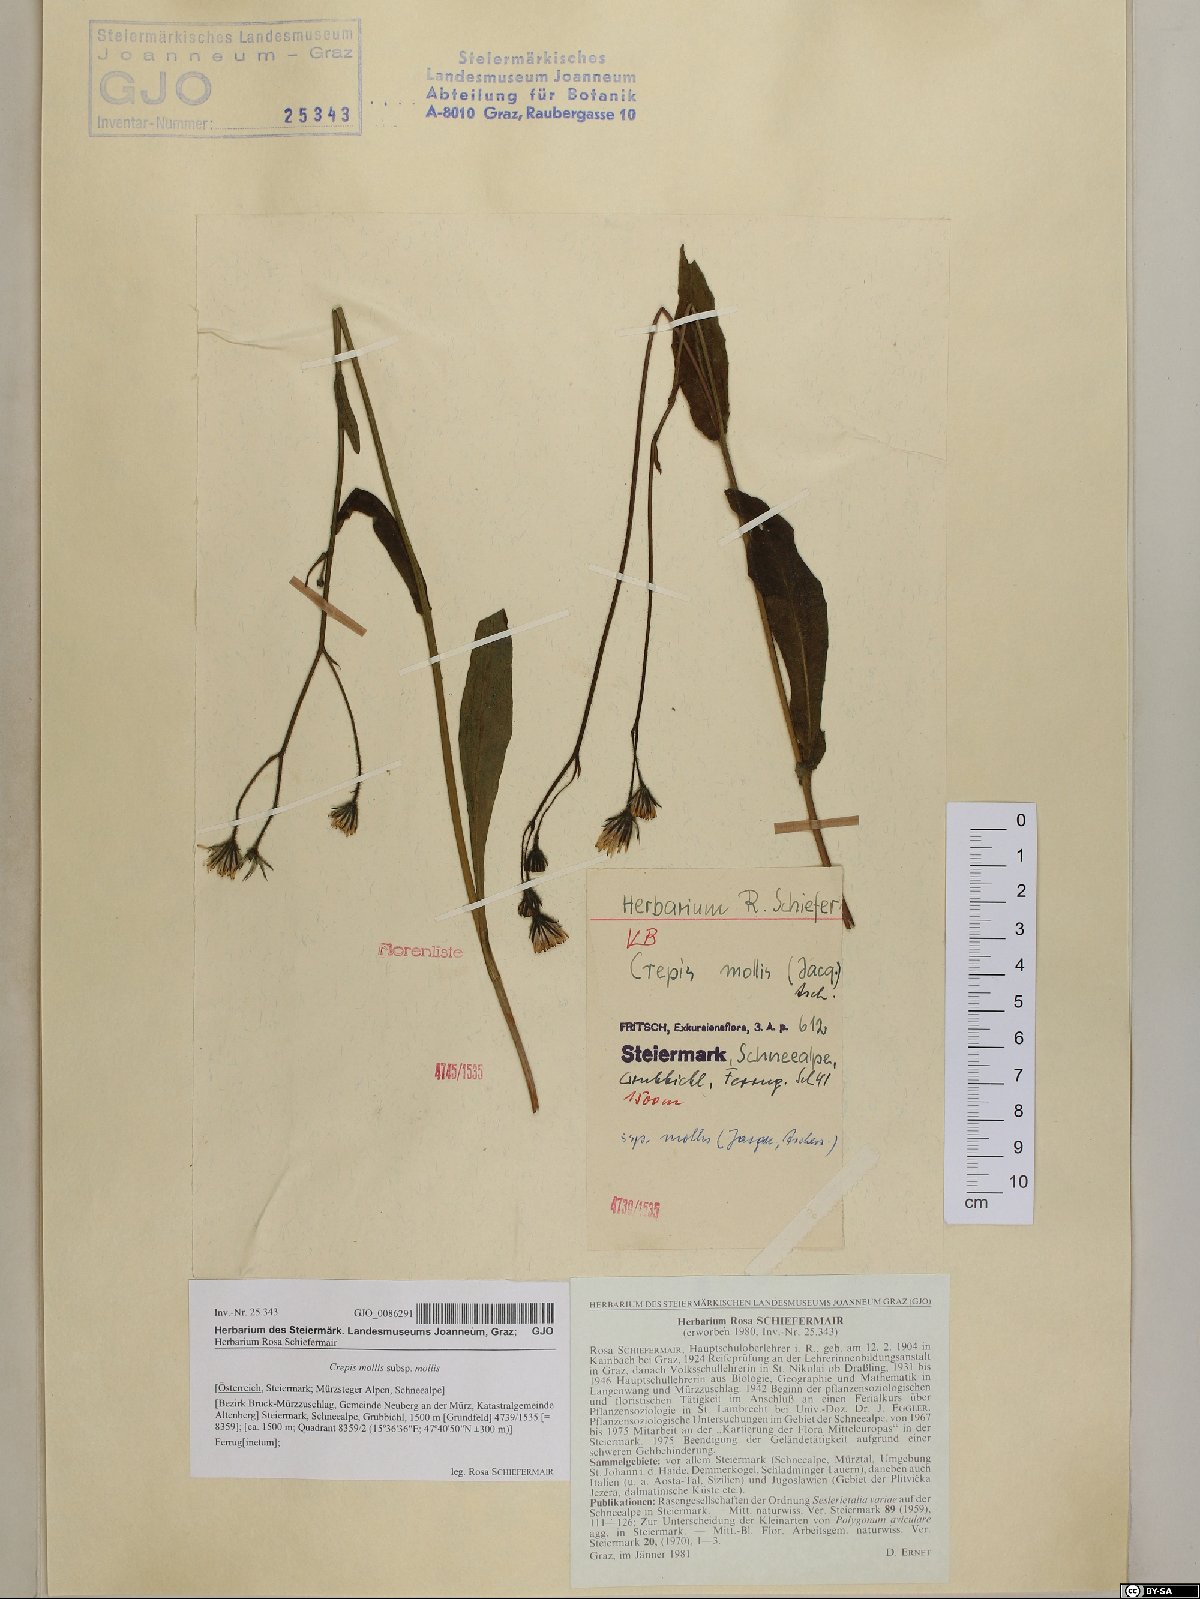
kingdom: Plantae
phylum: Tracheophyta
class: Magnoliopsida
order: Asterales
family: Asteraceae
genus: Crepis
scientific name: Crepis mollis
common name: Northern hawk's-beard
